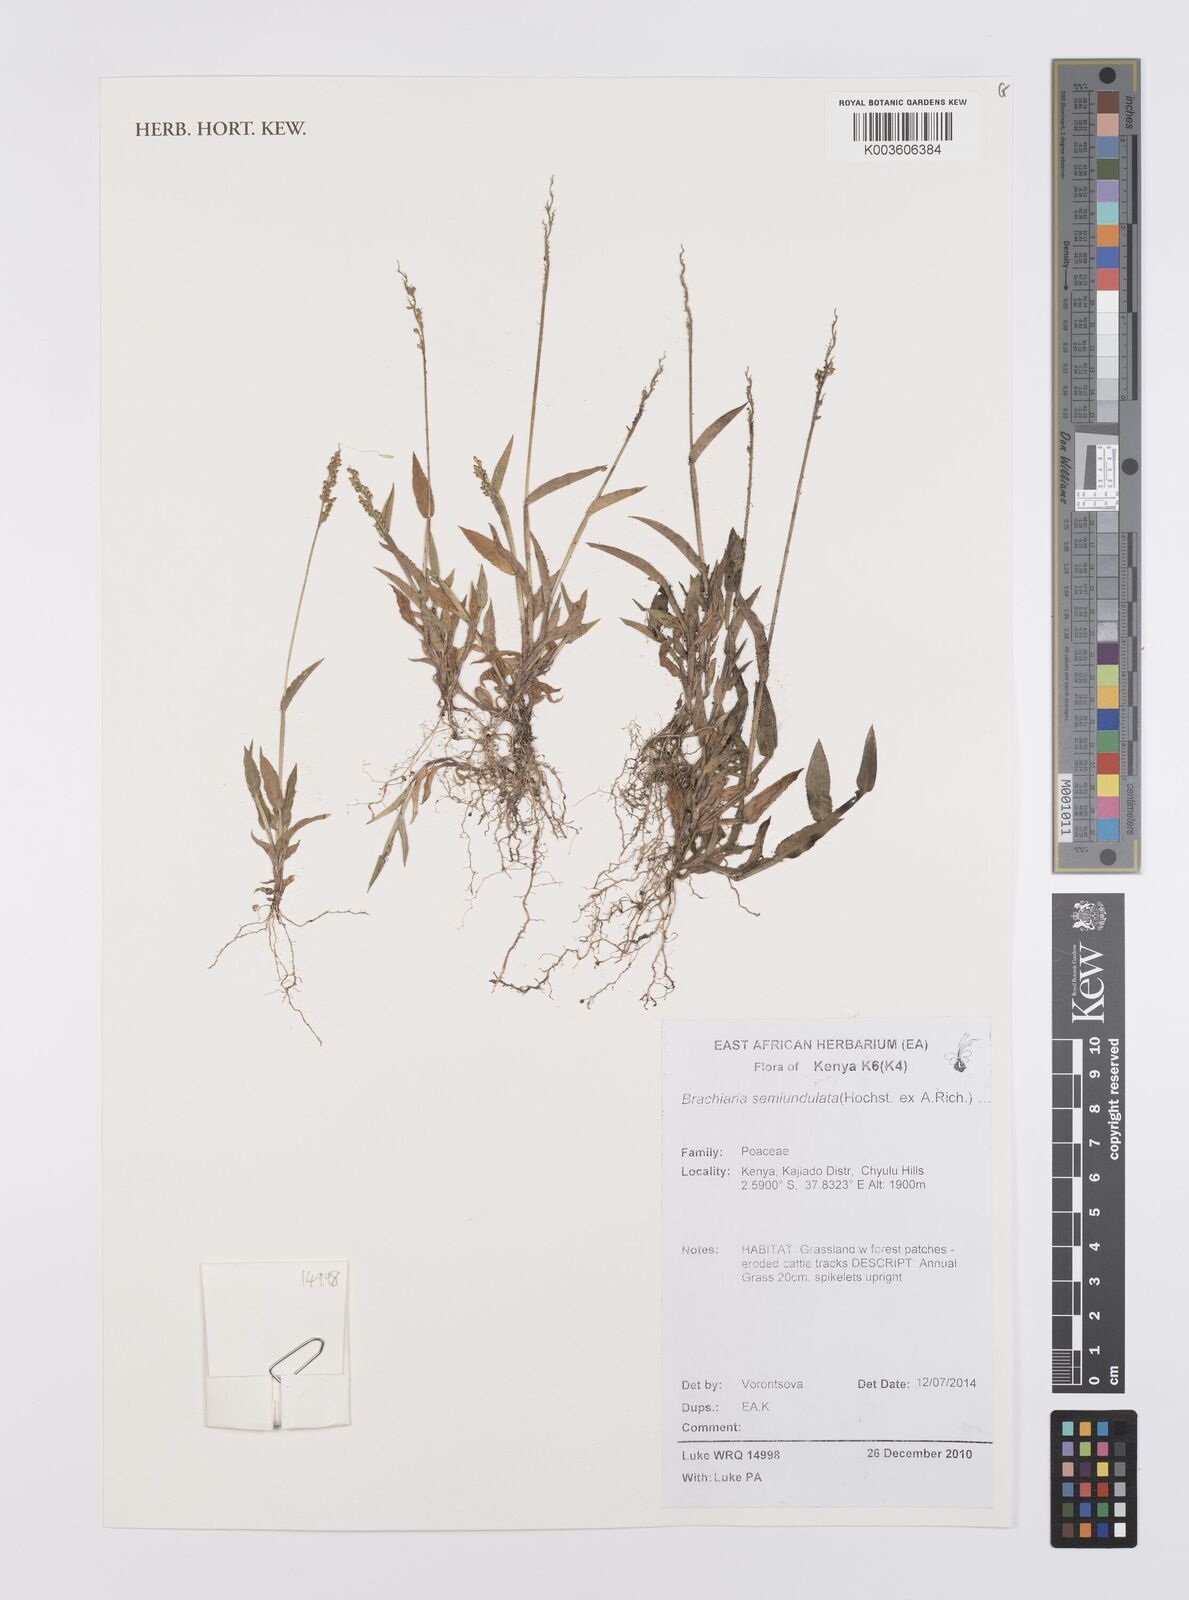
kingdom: Plantae
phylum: Tracheophyta
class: Liliopsida
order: Poales
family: Poaceae
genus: Urochloa
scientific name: Urochloa semiundulata
